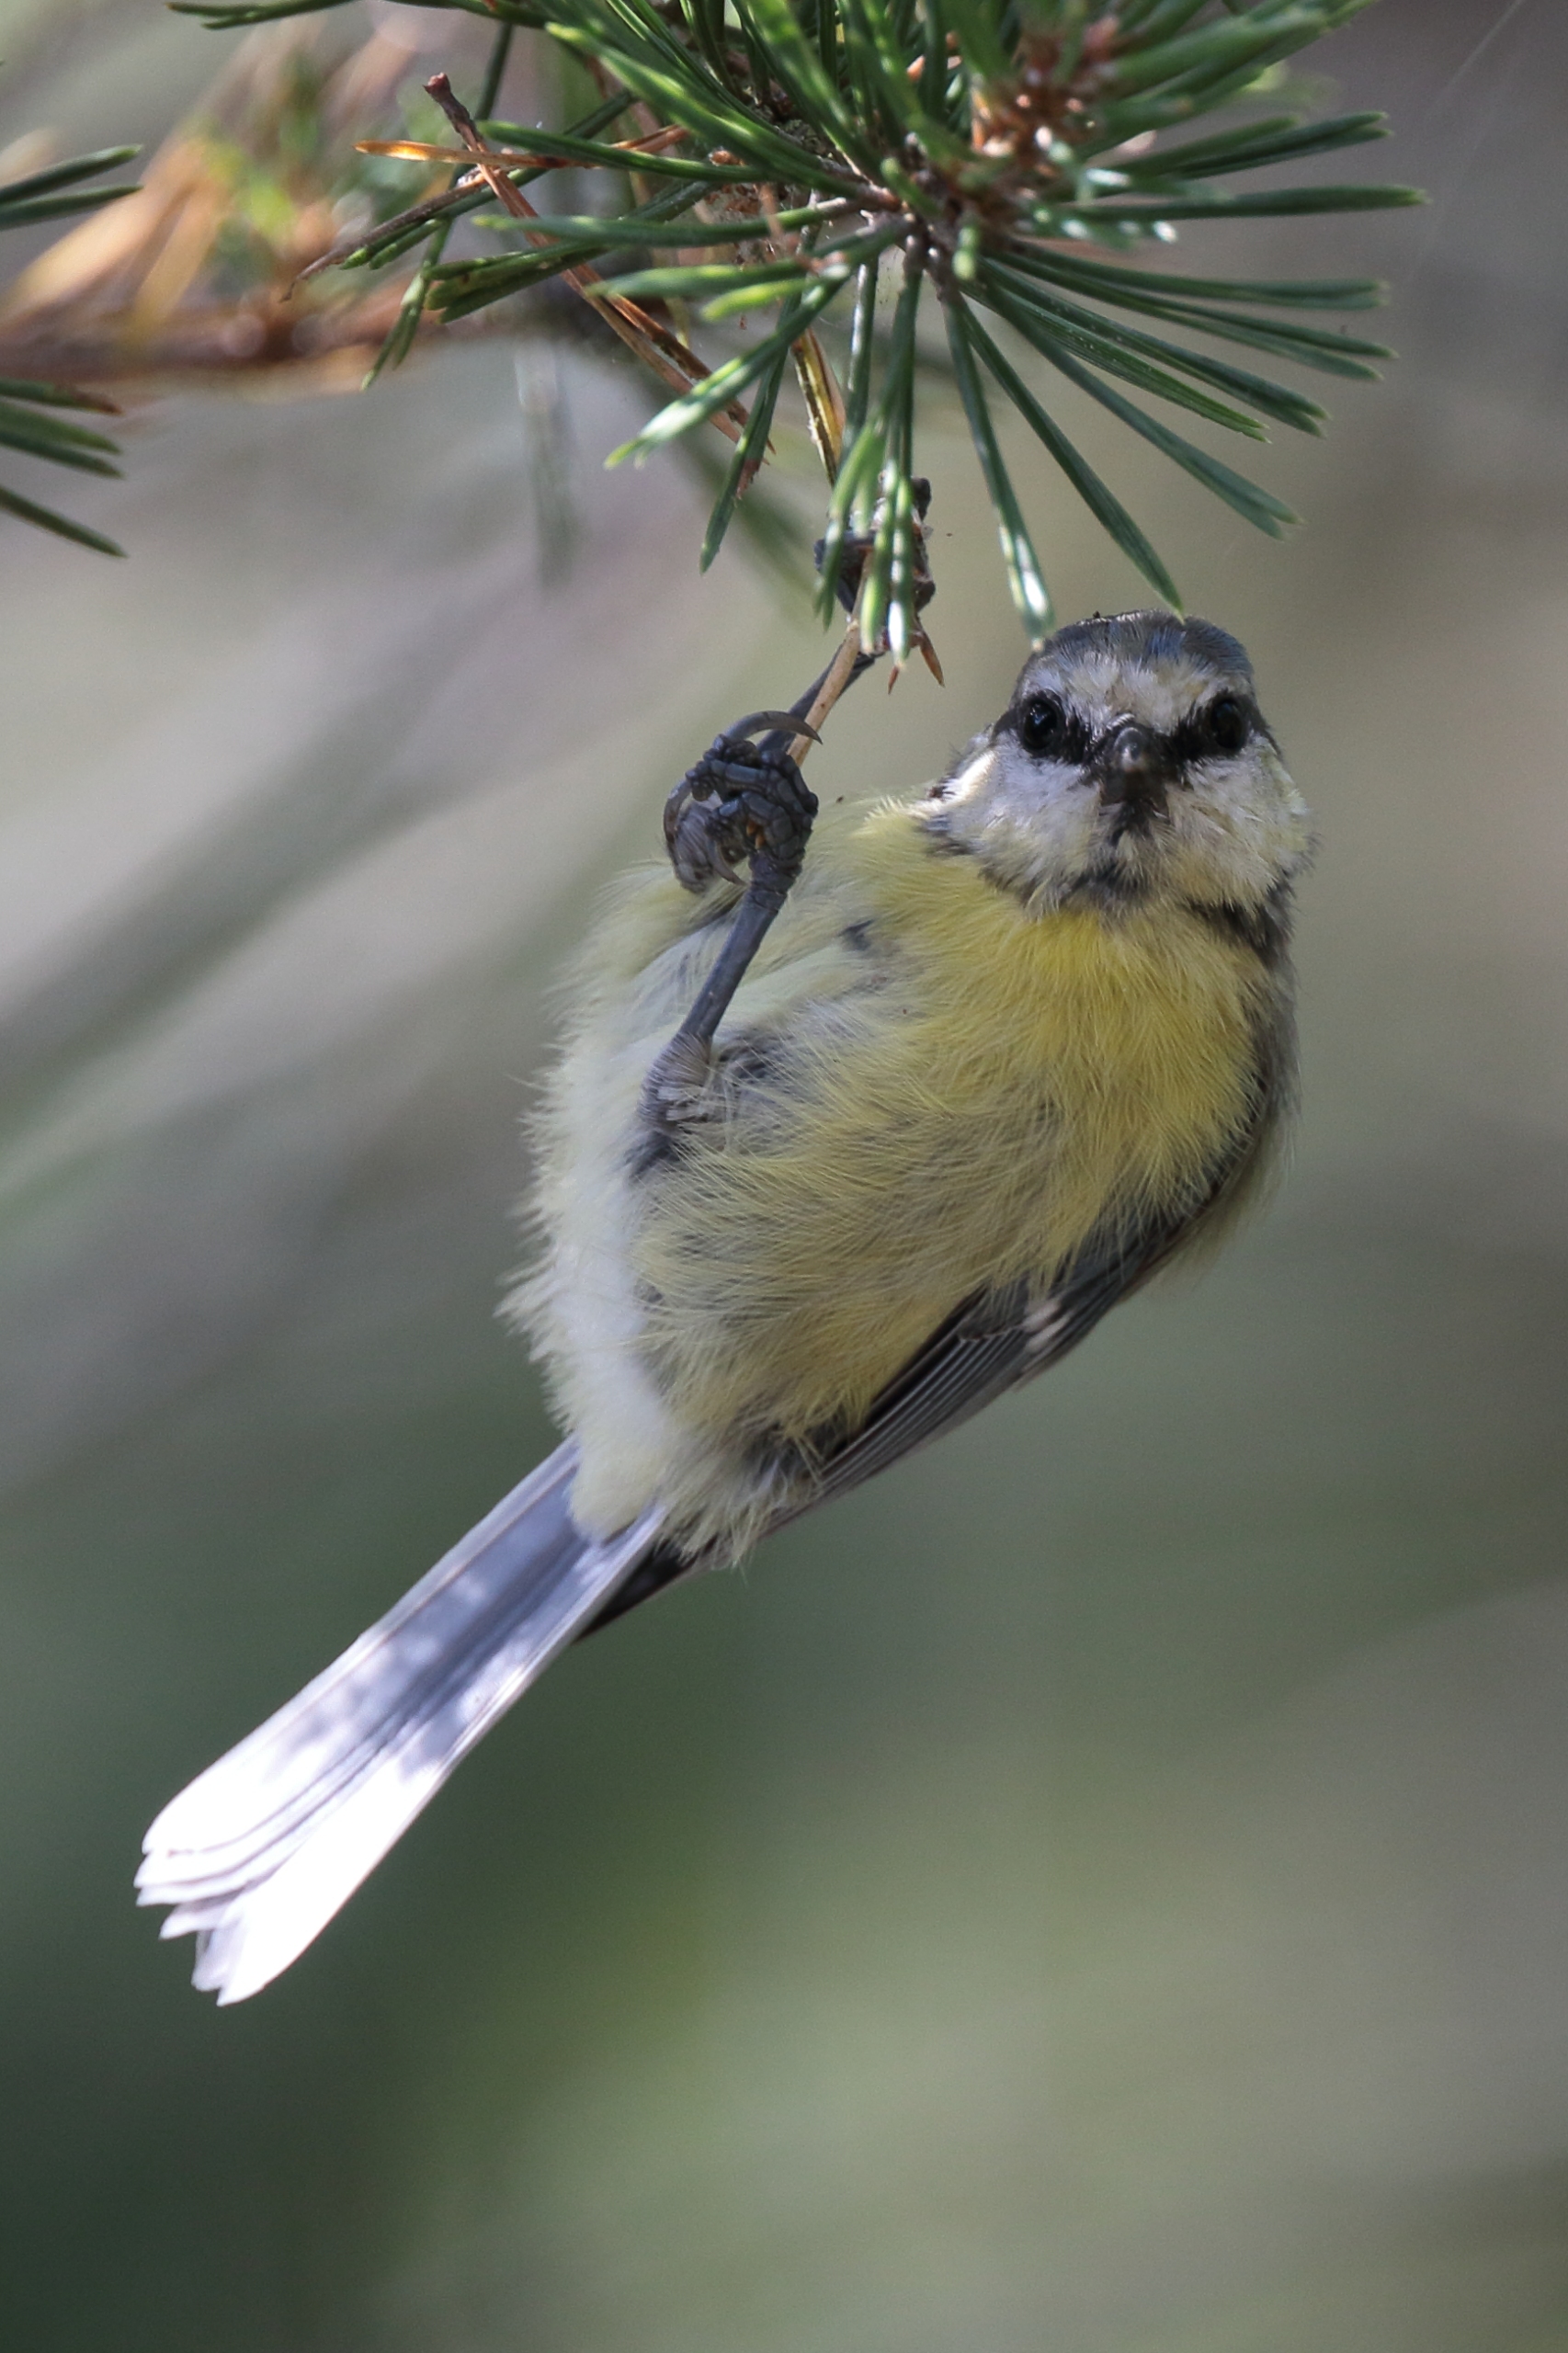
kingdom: Animalia
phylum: Chordata
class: Aves
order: Passeriformes
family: Paridae
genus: Cyanistes
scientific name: Cyanistes caeruleus
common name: Blåmejse
